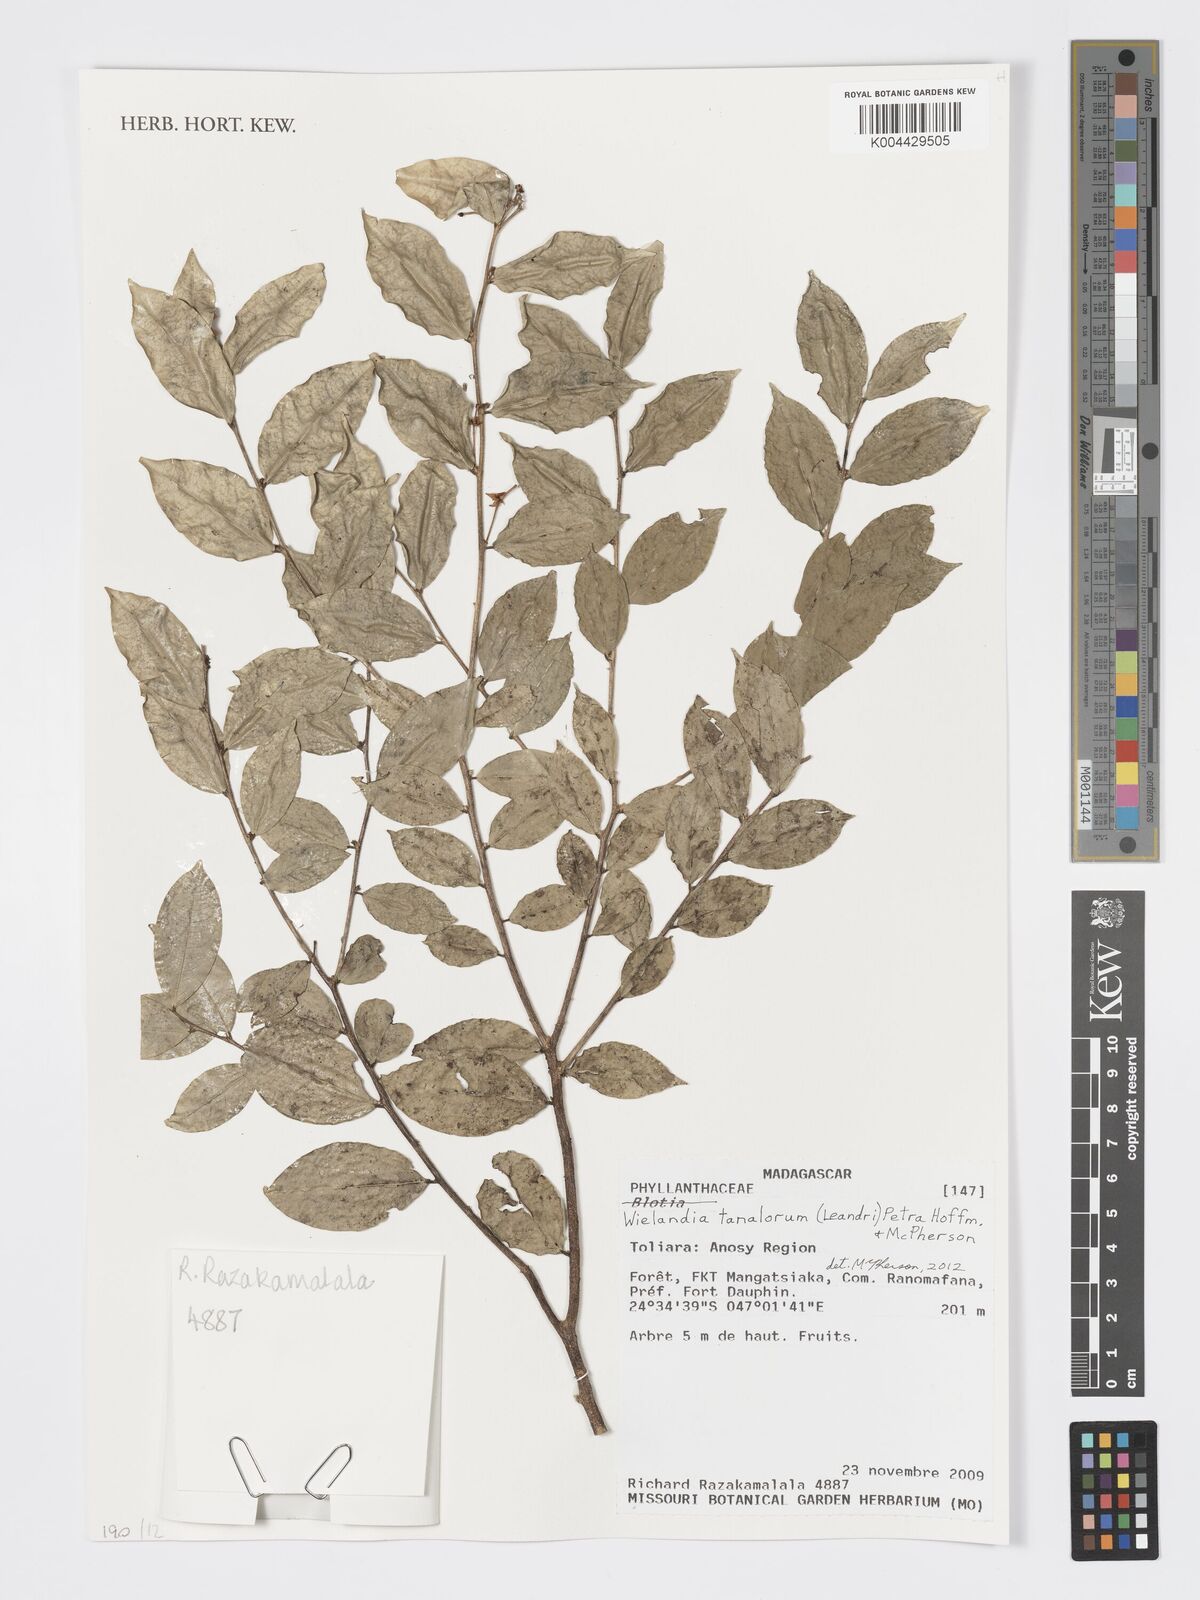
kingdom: Plantae
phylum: Tracheophyta
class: Magnoliopsida
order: Malpighiales
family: Phyllanthaceae
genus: Wielandia
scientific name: Wielandia tanalorum
